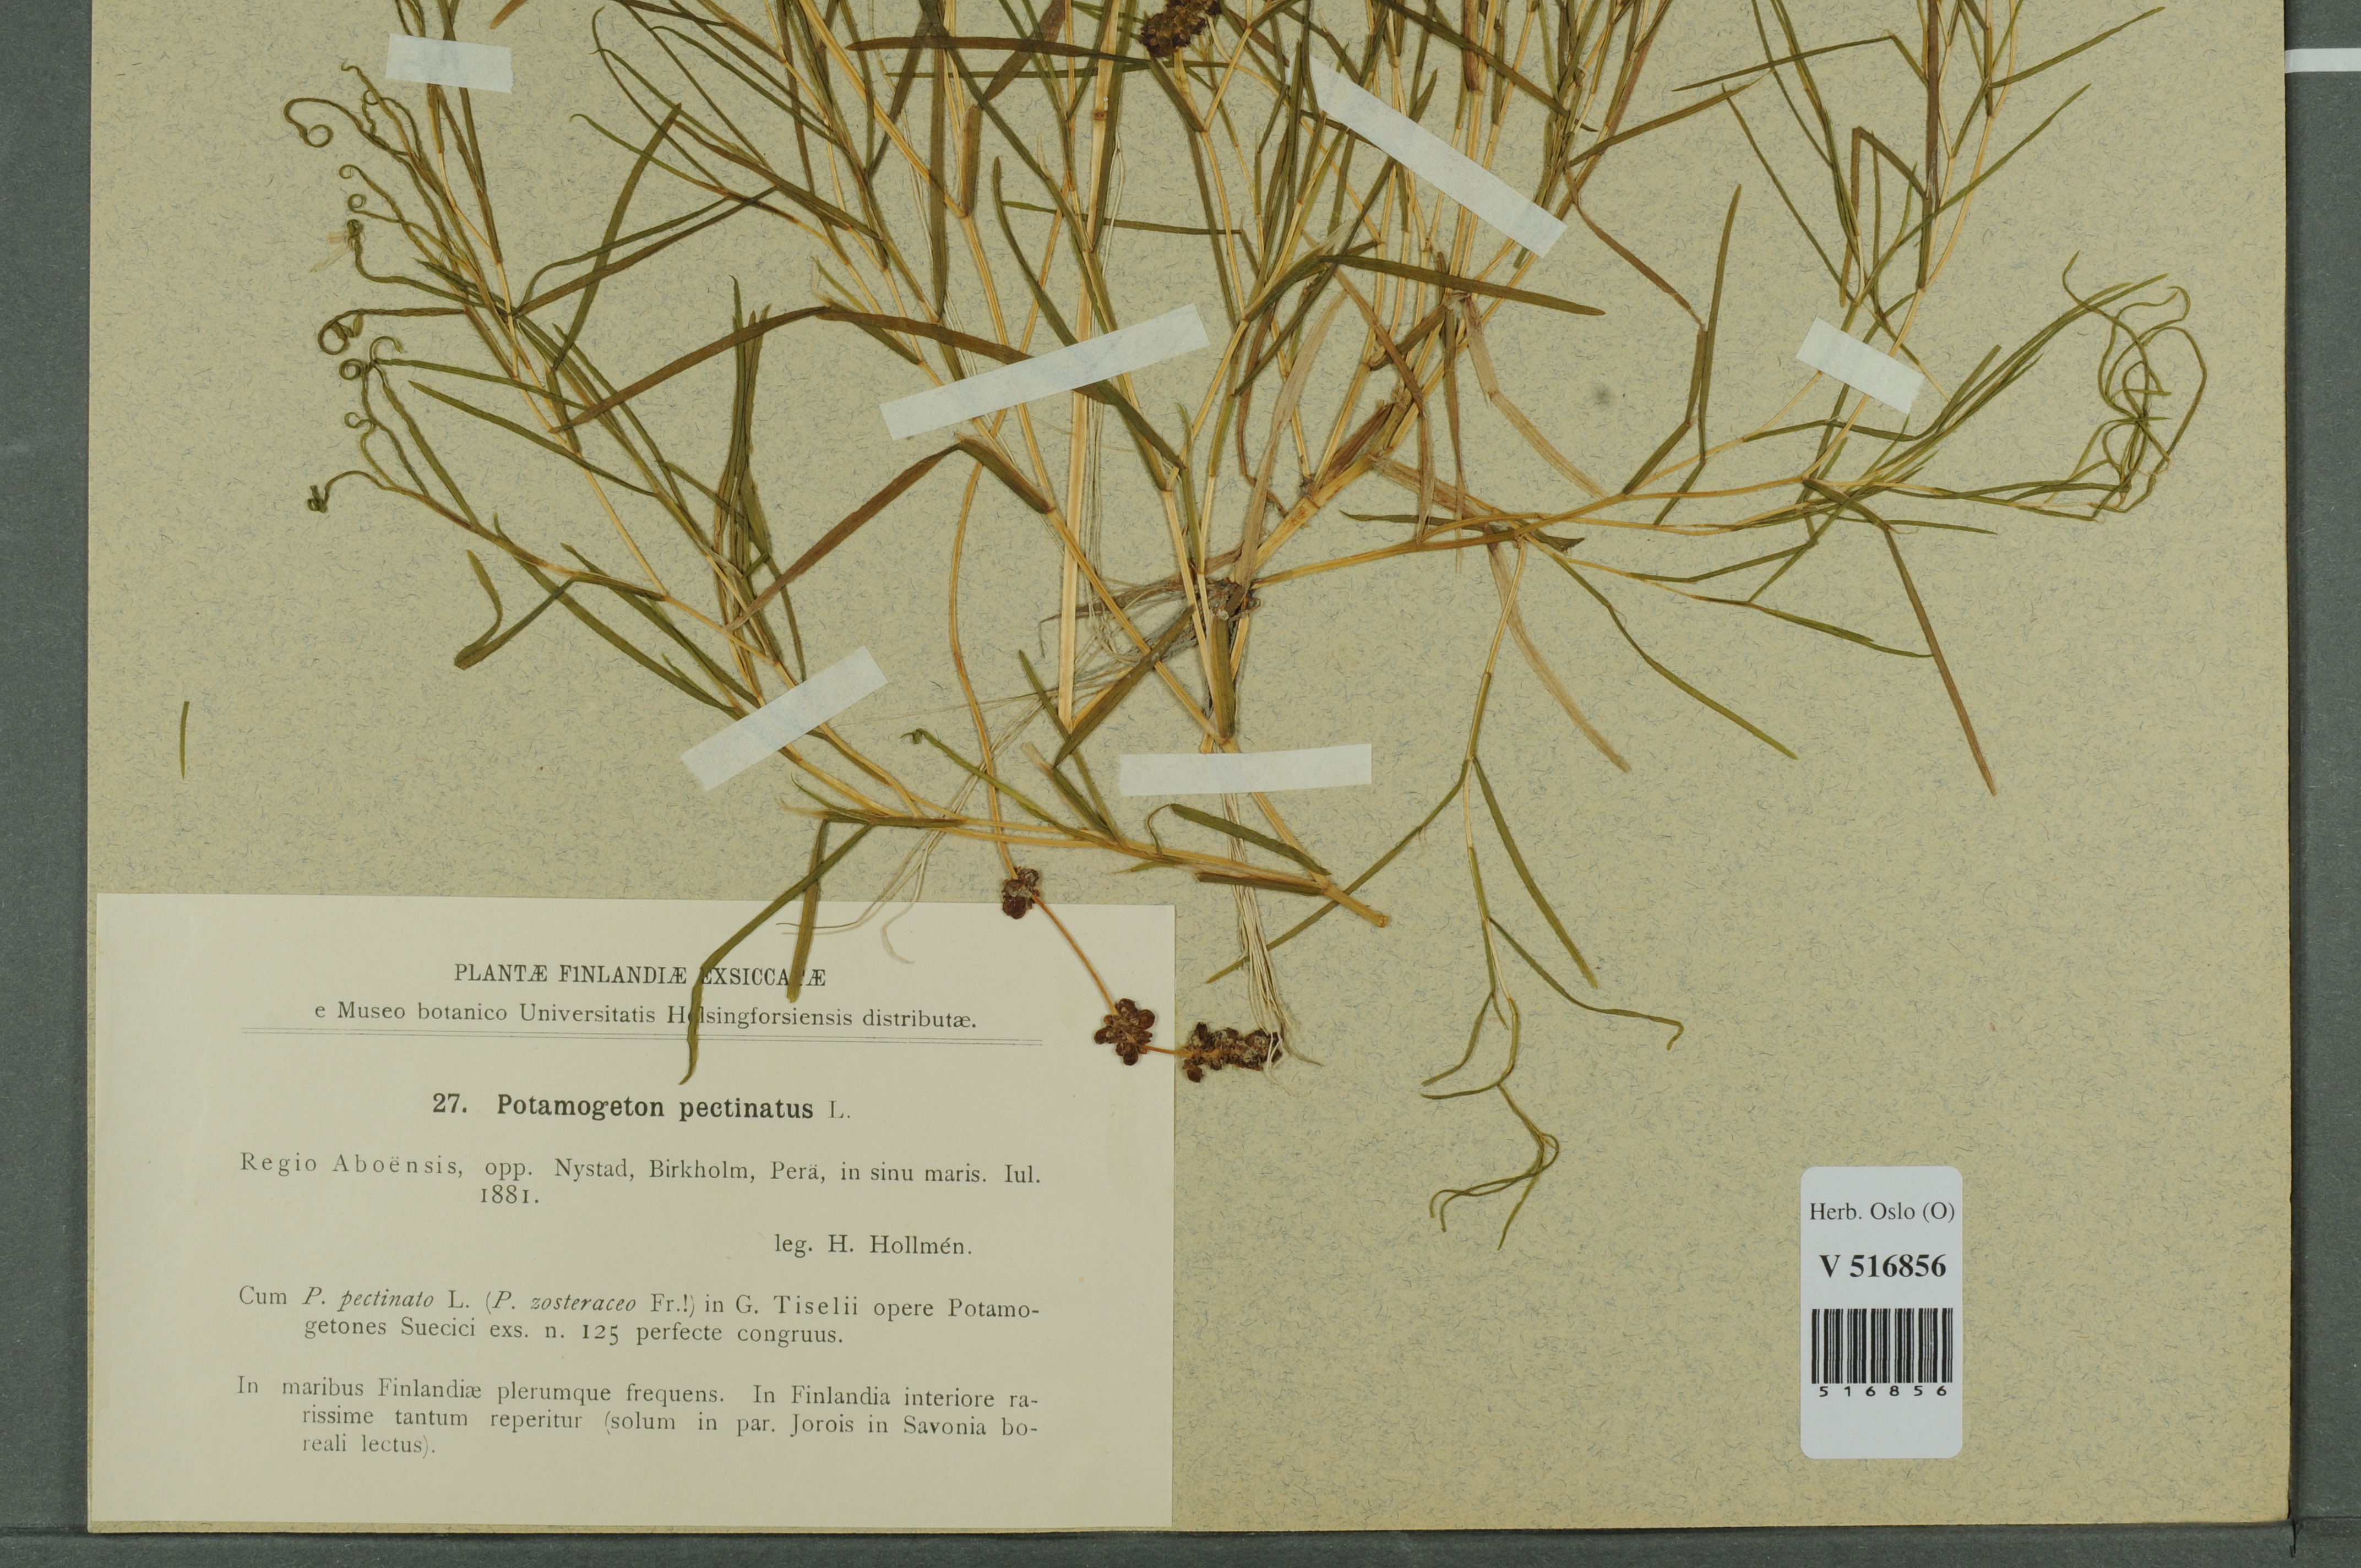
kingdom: Plantae
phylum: Tracheophyta
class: Liliopsida
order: Alismatales
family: Potamogetonaceae
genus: Stuckenia
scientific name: Stuckenia pectinata
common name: Sago pondweed
